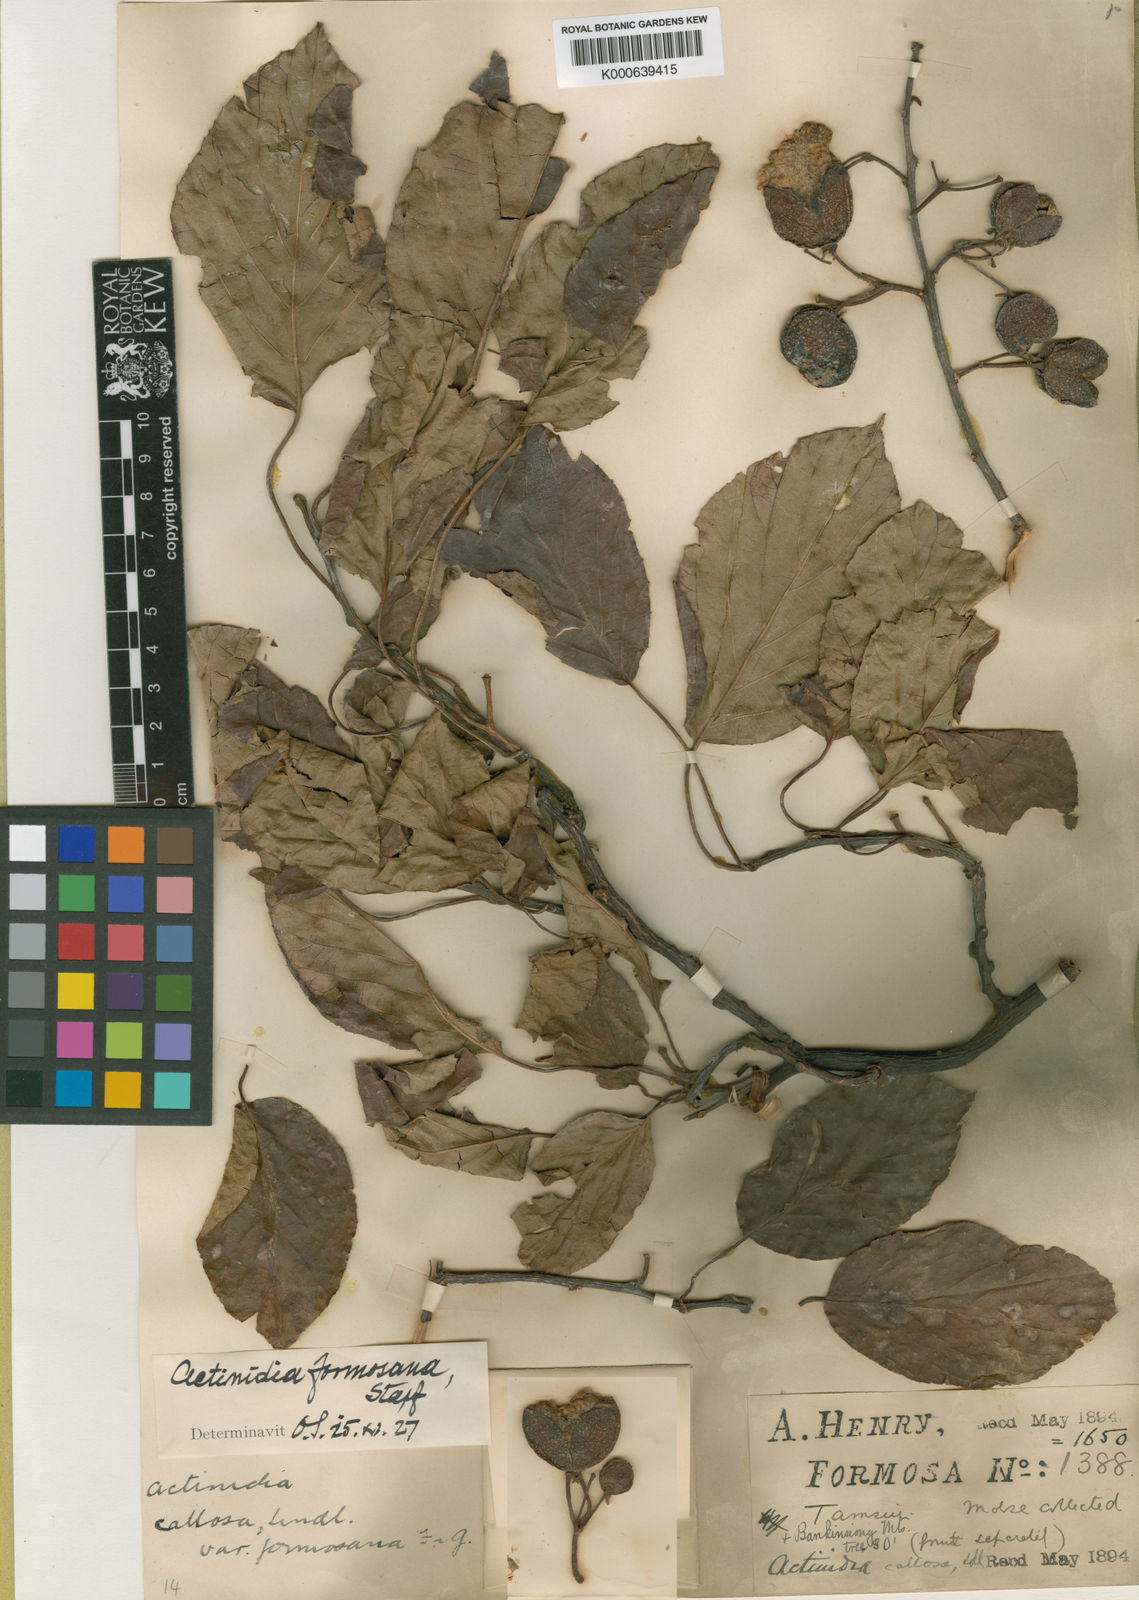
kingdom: Plantae
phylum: Tracheophyta
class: Magnoliopsida
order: Ericales
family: Actinidiaceae
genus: Actinidia
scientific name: Actinidia callosa
